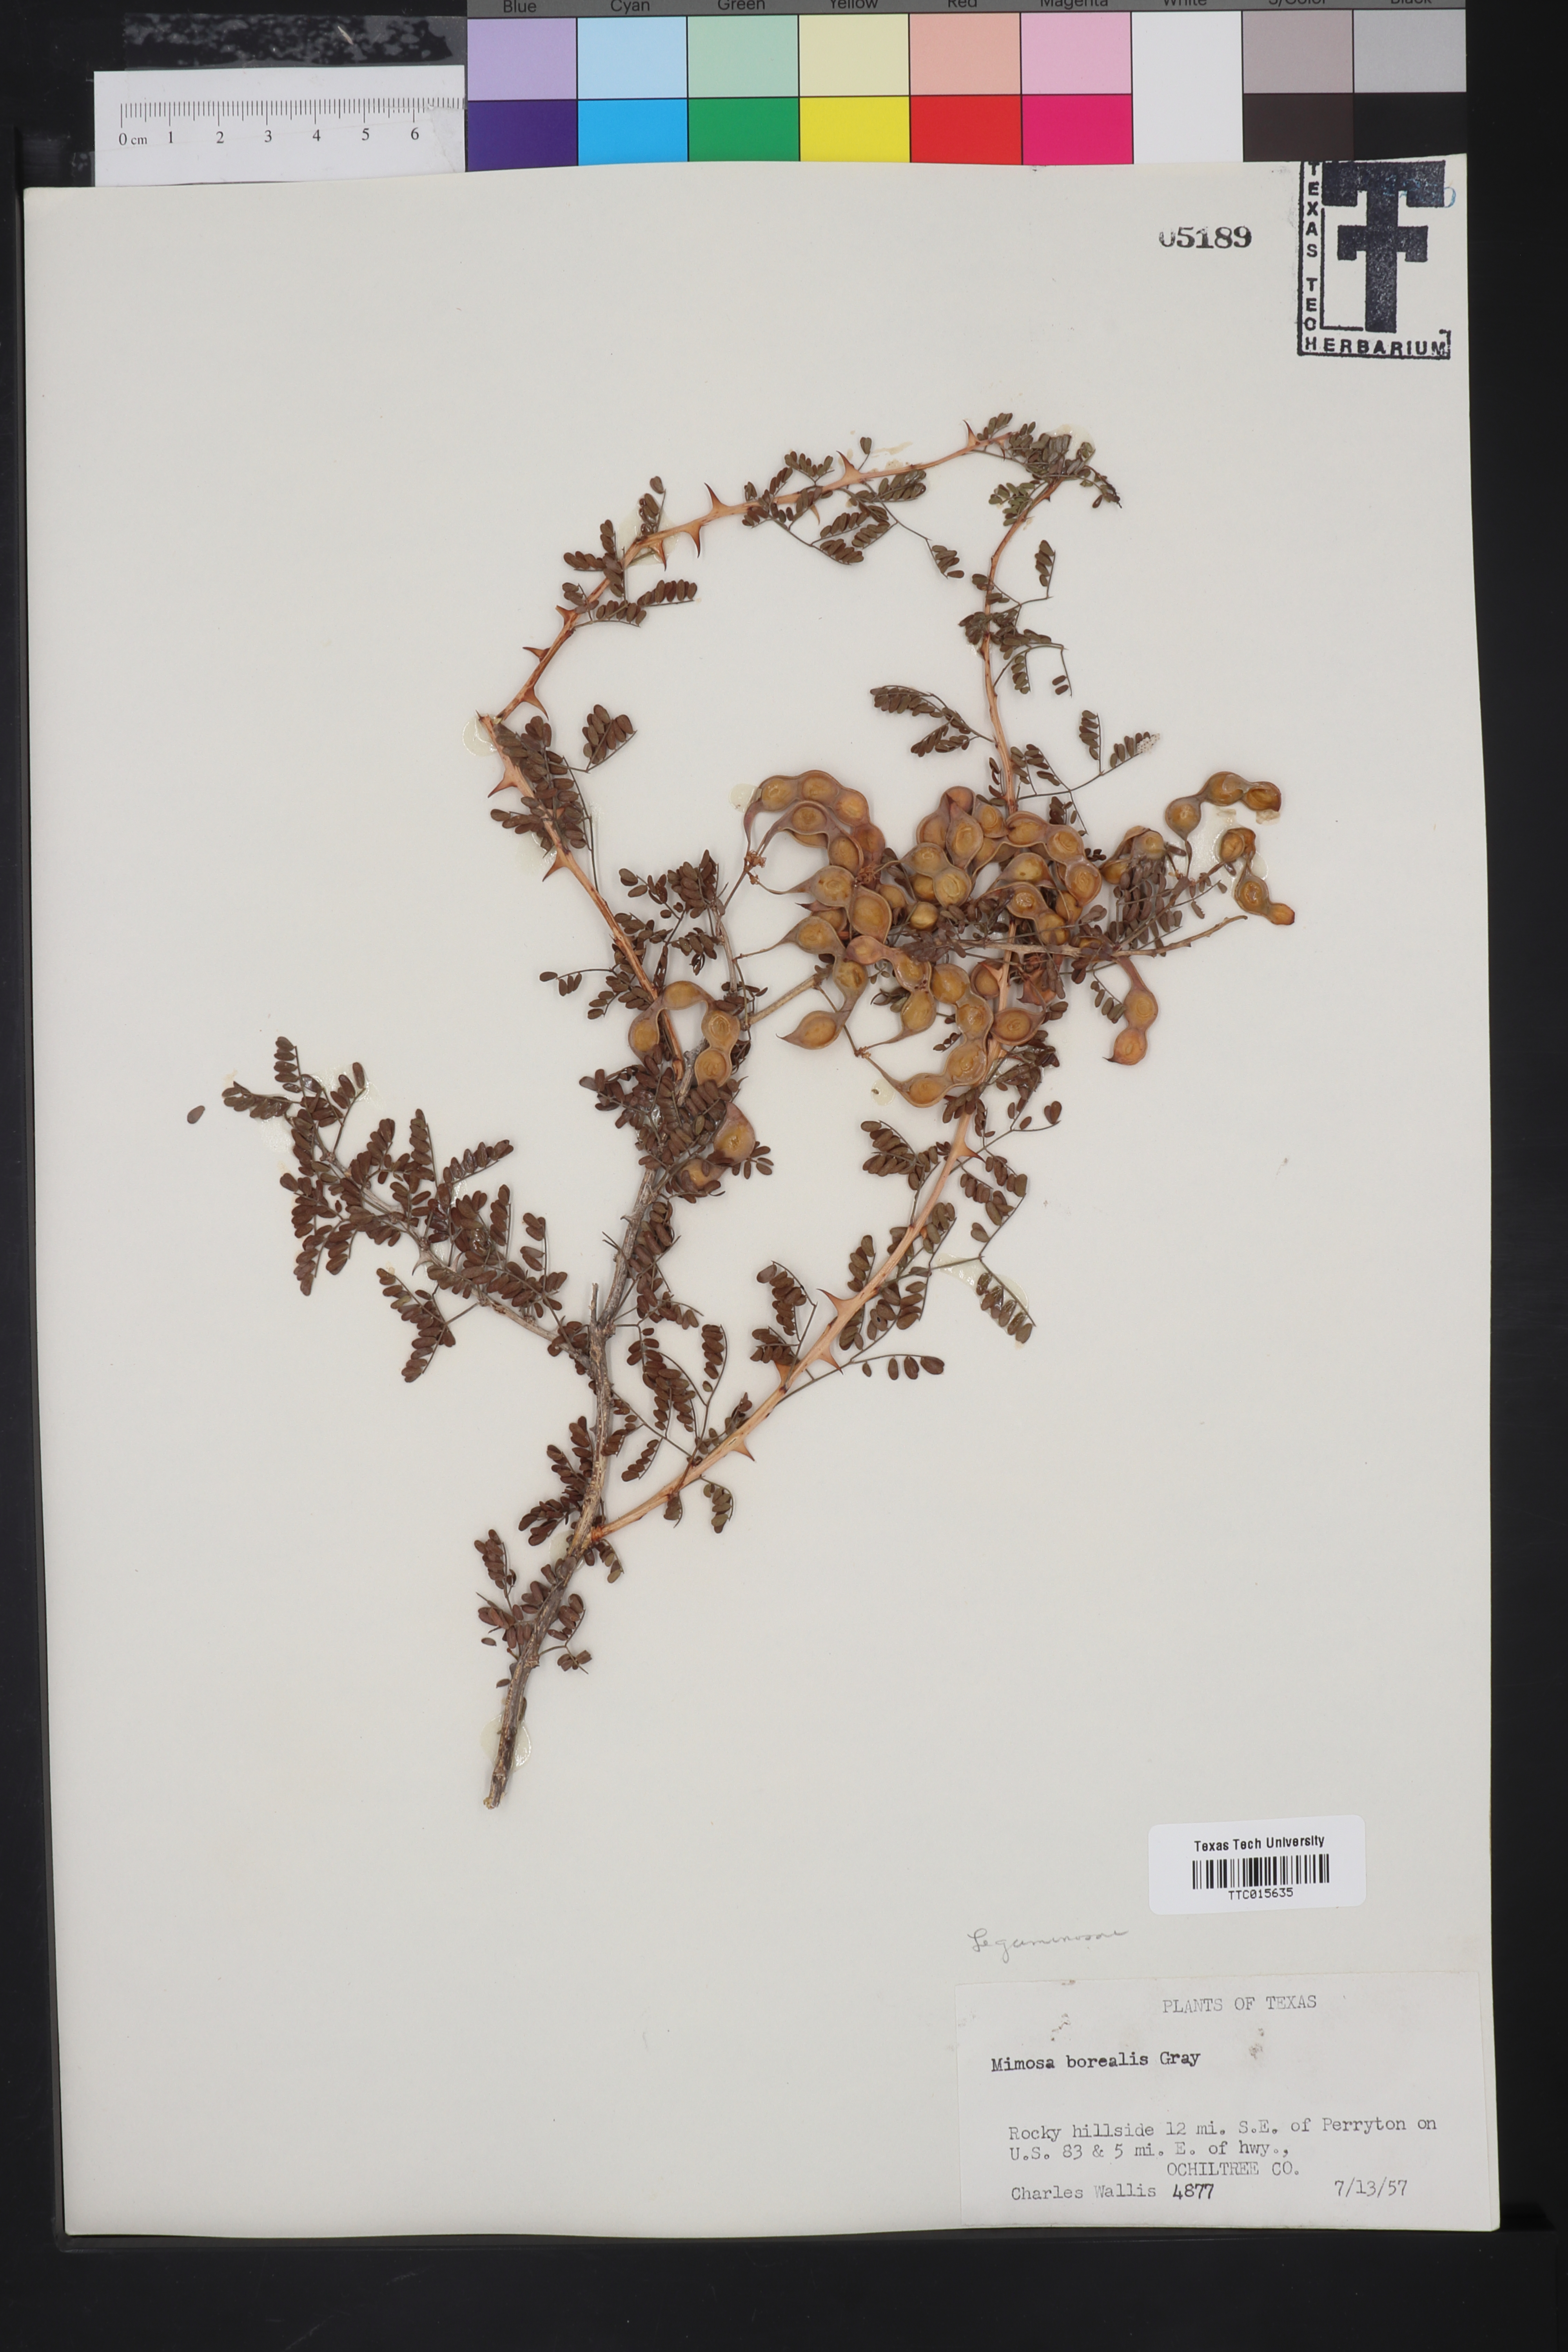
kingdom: Plantae
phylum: Tracheophyta
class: Magnoliopsida
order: Fabales
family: Fabaceae
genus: Mimosa
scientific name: Mimosa borealis
